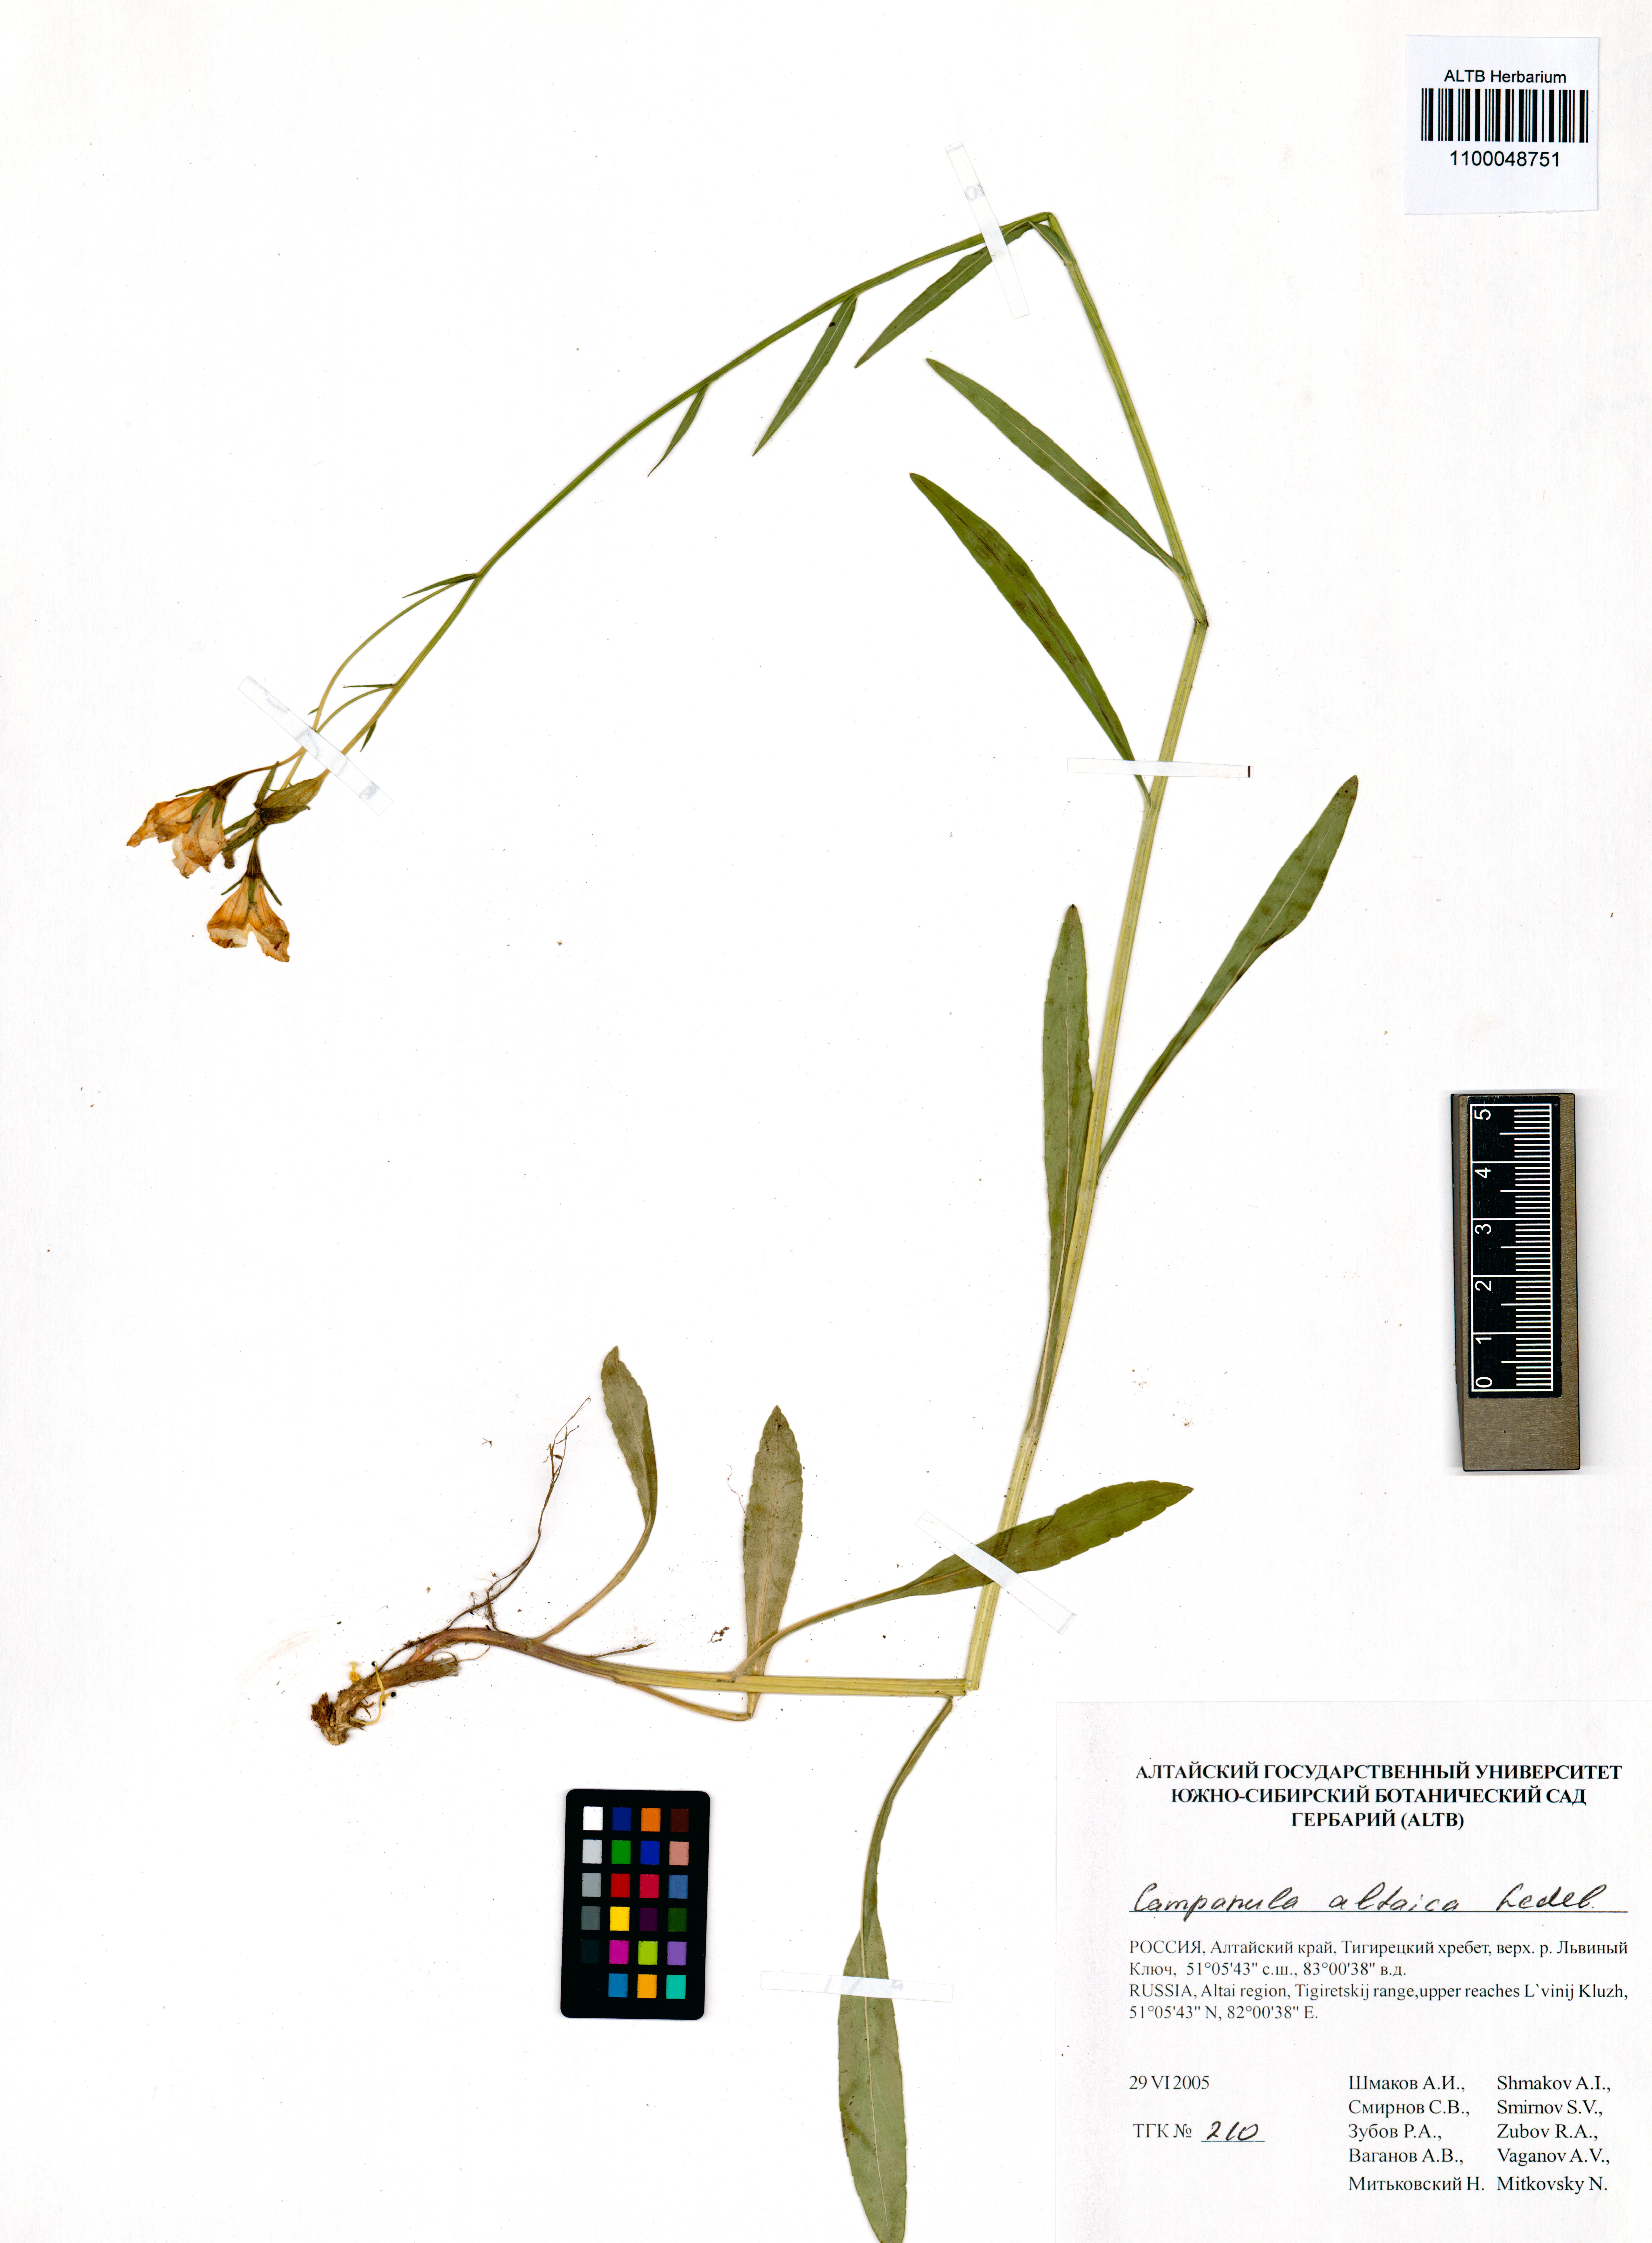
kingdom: Plantae
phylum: Tracheophyta
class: Magnoliopsida
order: Asterales
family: Campanulaceae
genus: Campanula
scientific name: Campanula stevenii
